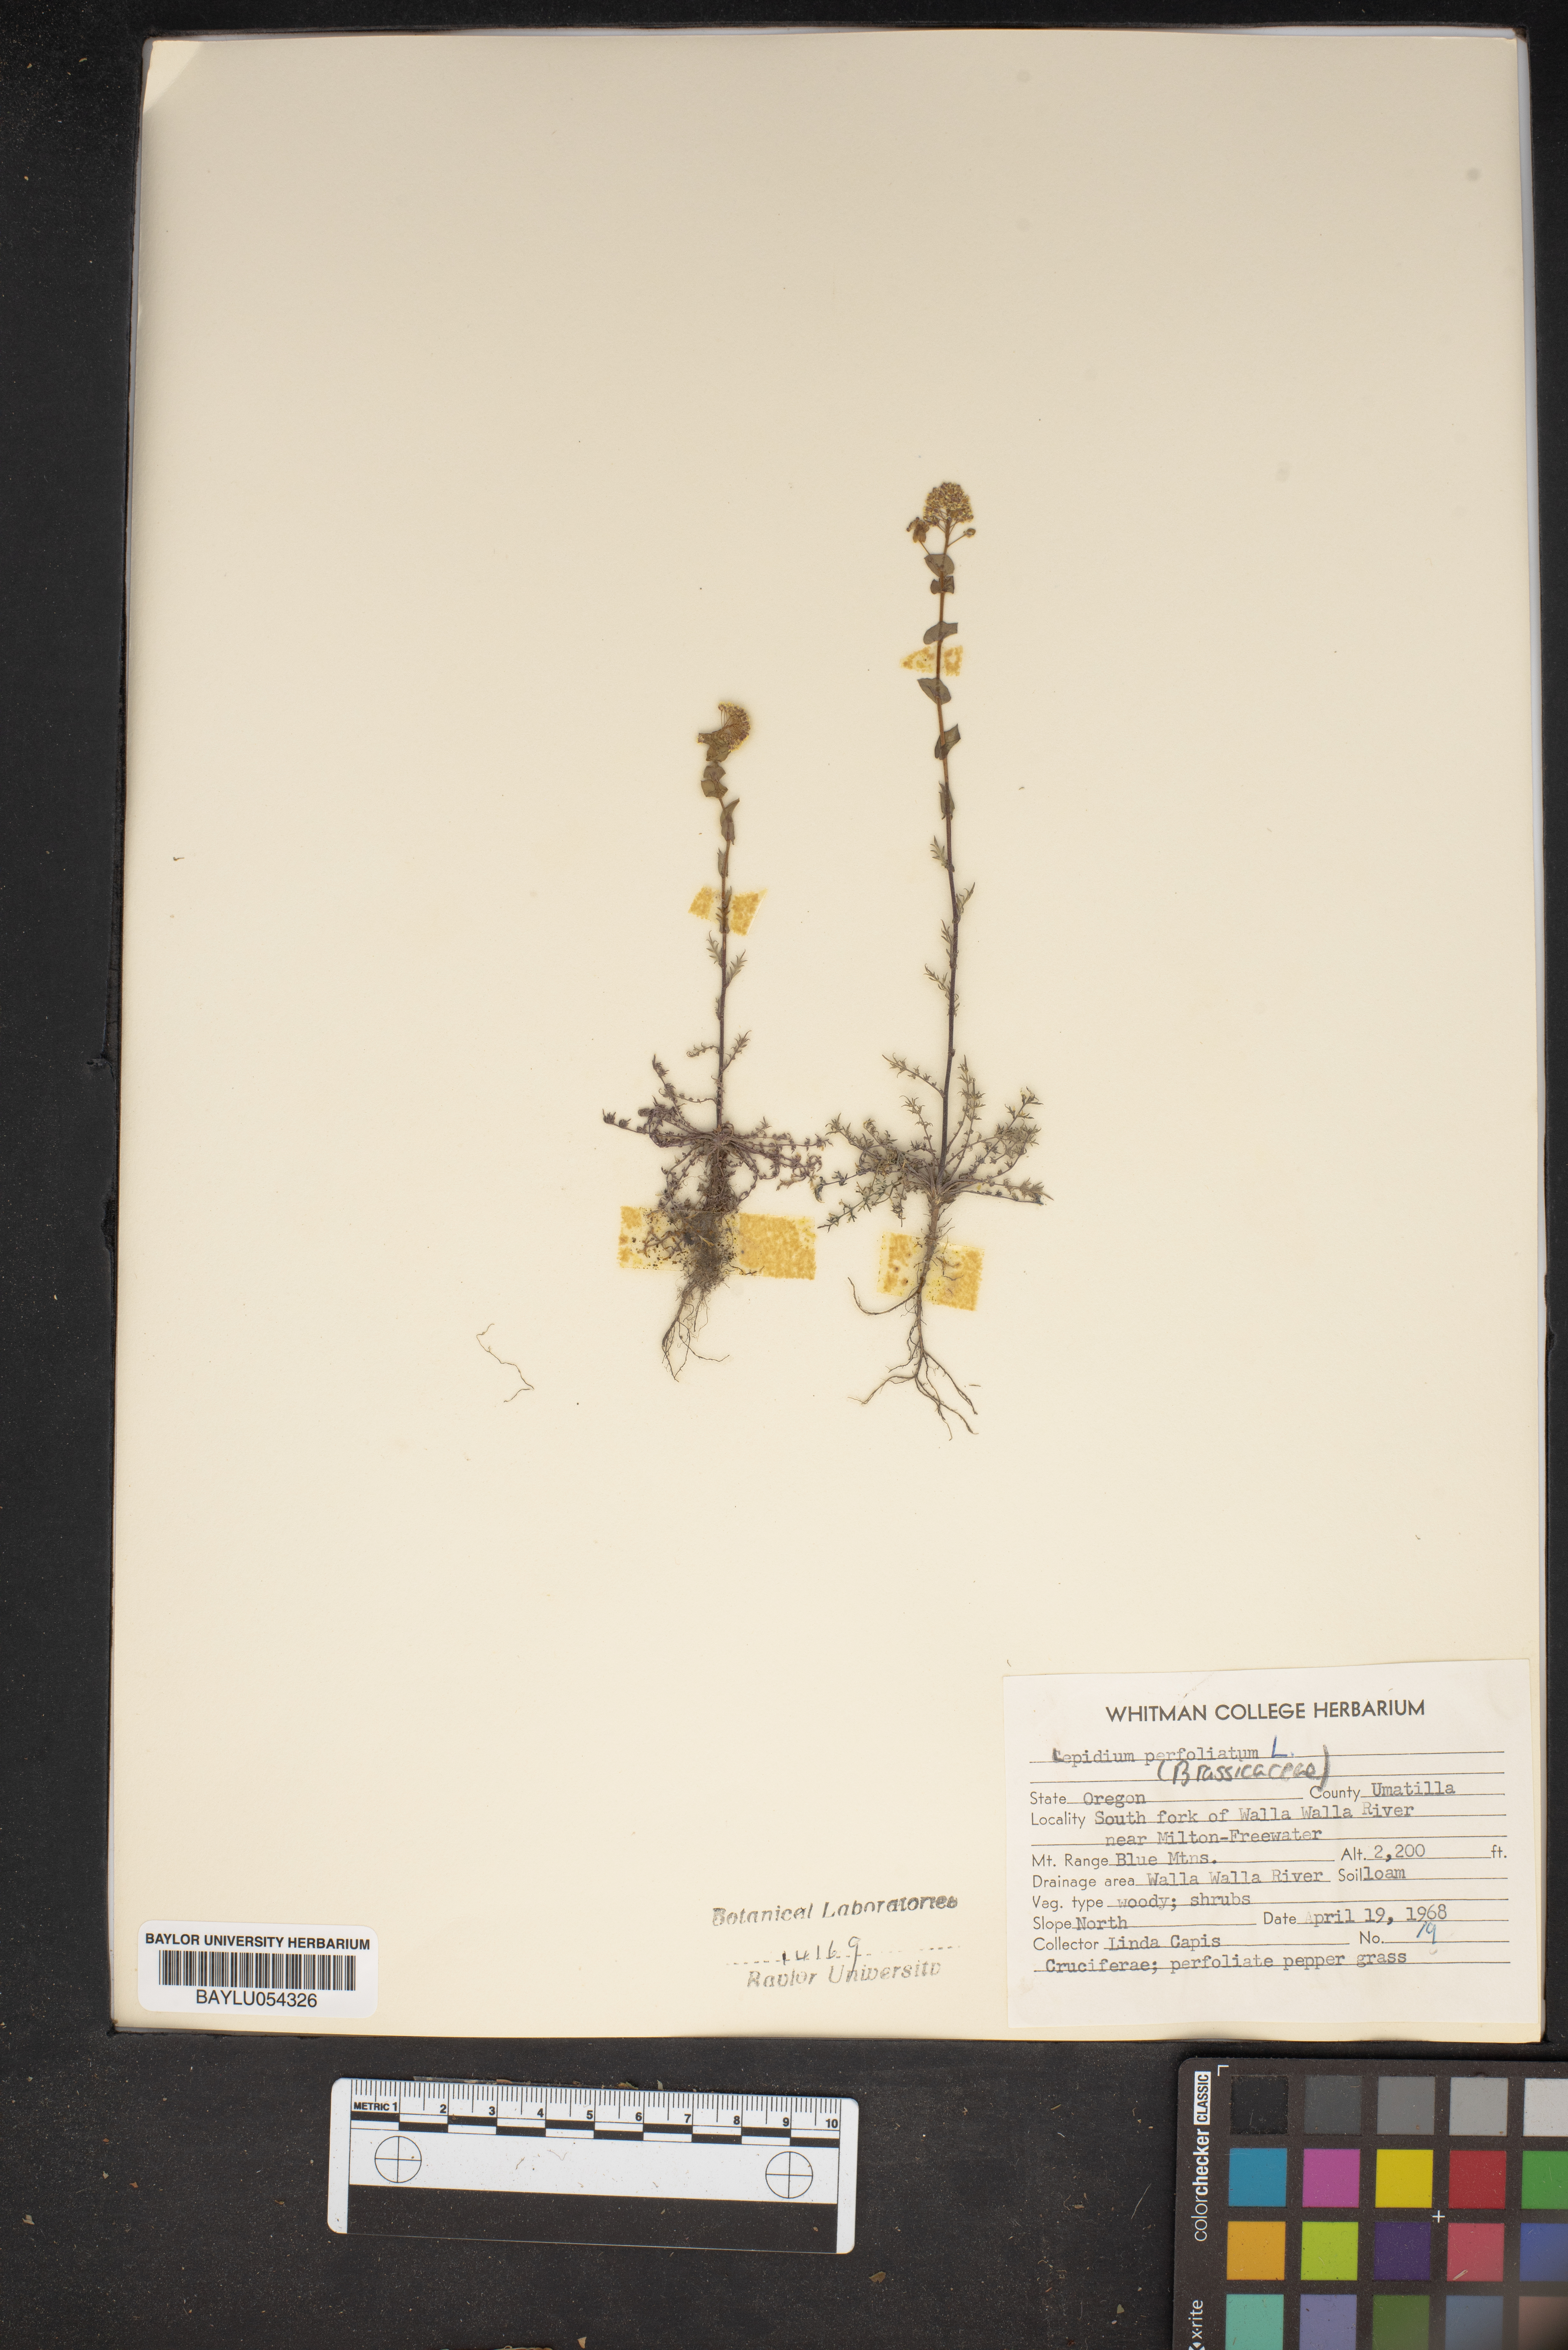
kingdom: Plantae
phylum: Tracheophyta
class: Magnoliopsida
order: Brassicales
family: Brassicaceae
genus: Lepidium
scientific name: Lepidium perfoliatum
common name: Perfoliate pepperwort
